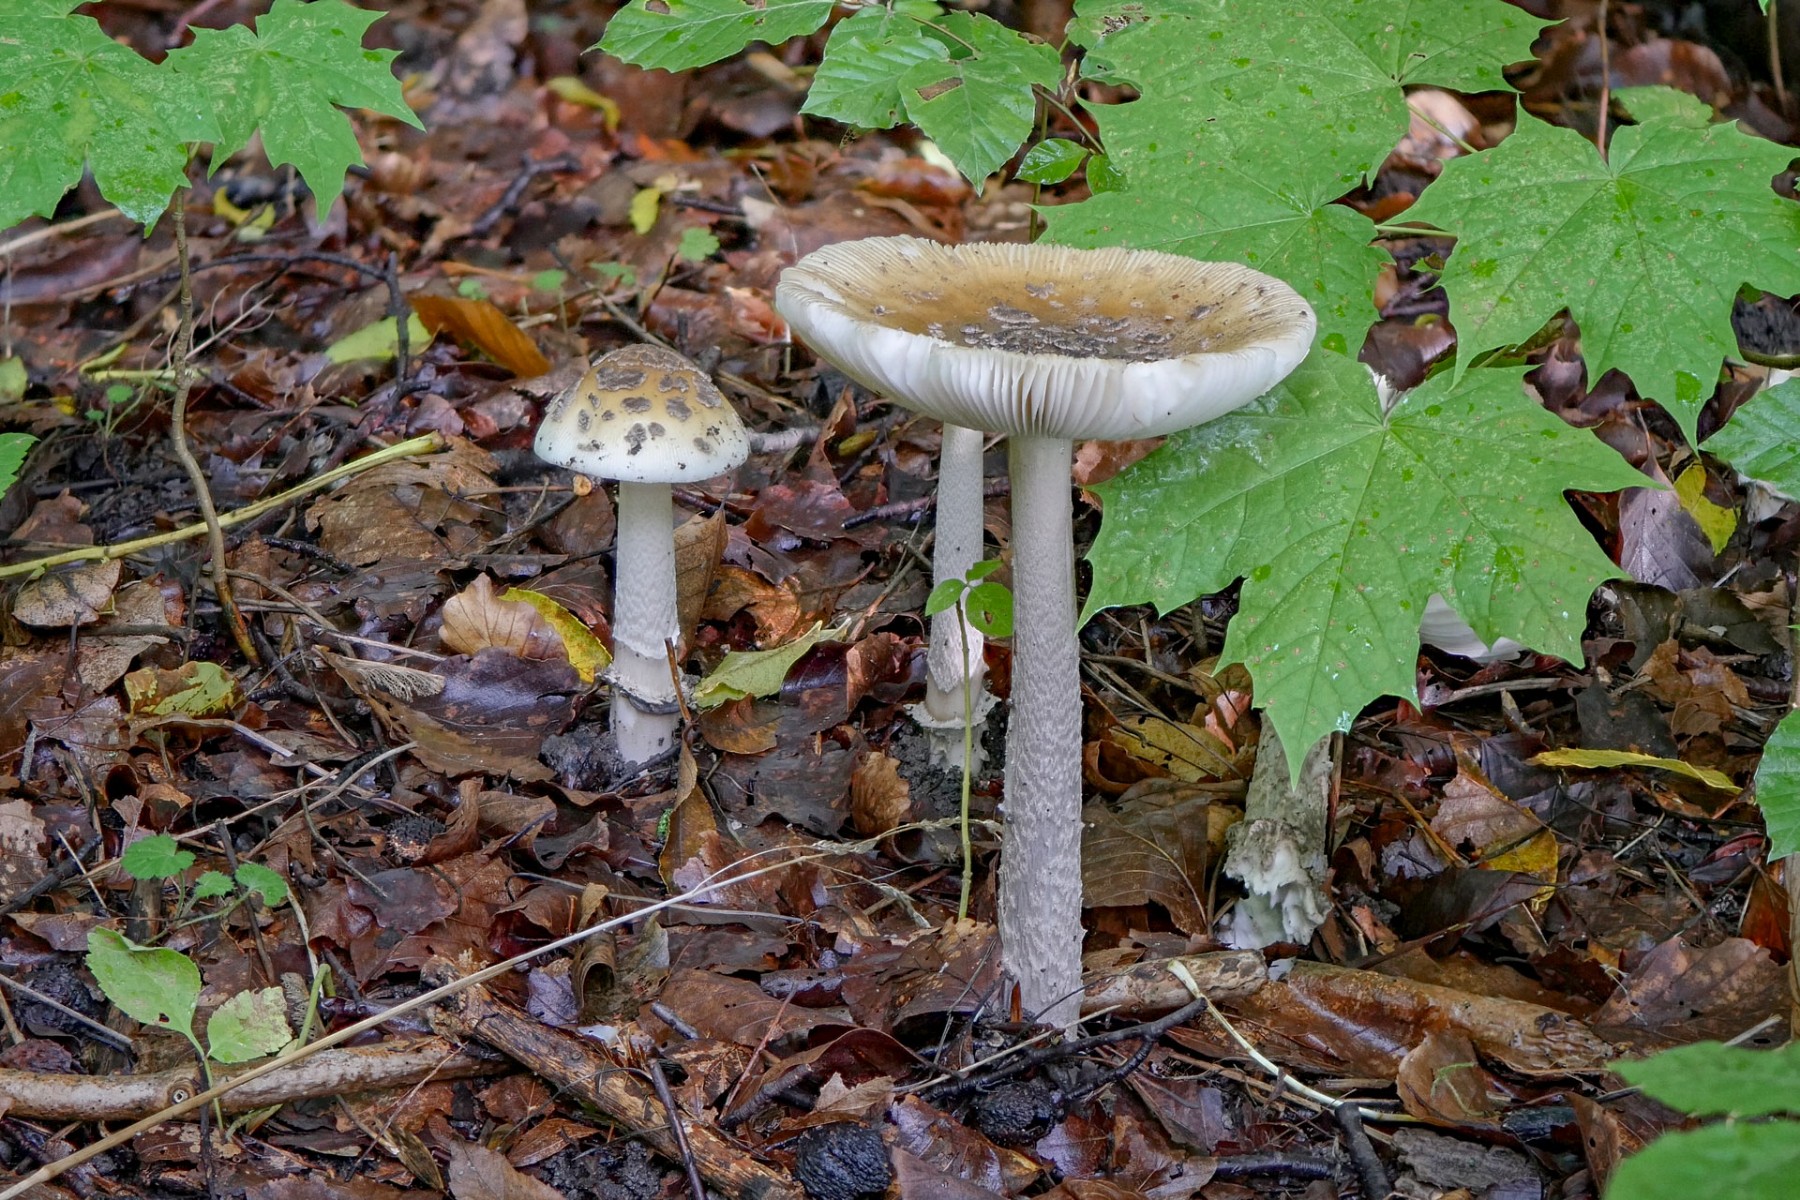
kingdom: Fungi
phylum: Basidiomycota
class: Agaricomycetes
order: Agaricales
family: Amanitaceae
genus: Amanita
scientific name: Amanita ceciliae
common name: stor kam-fluesvamp
